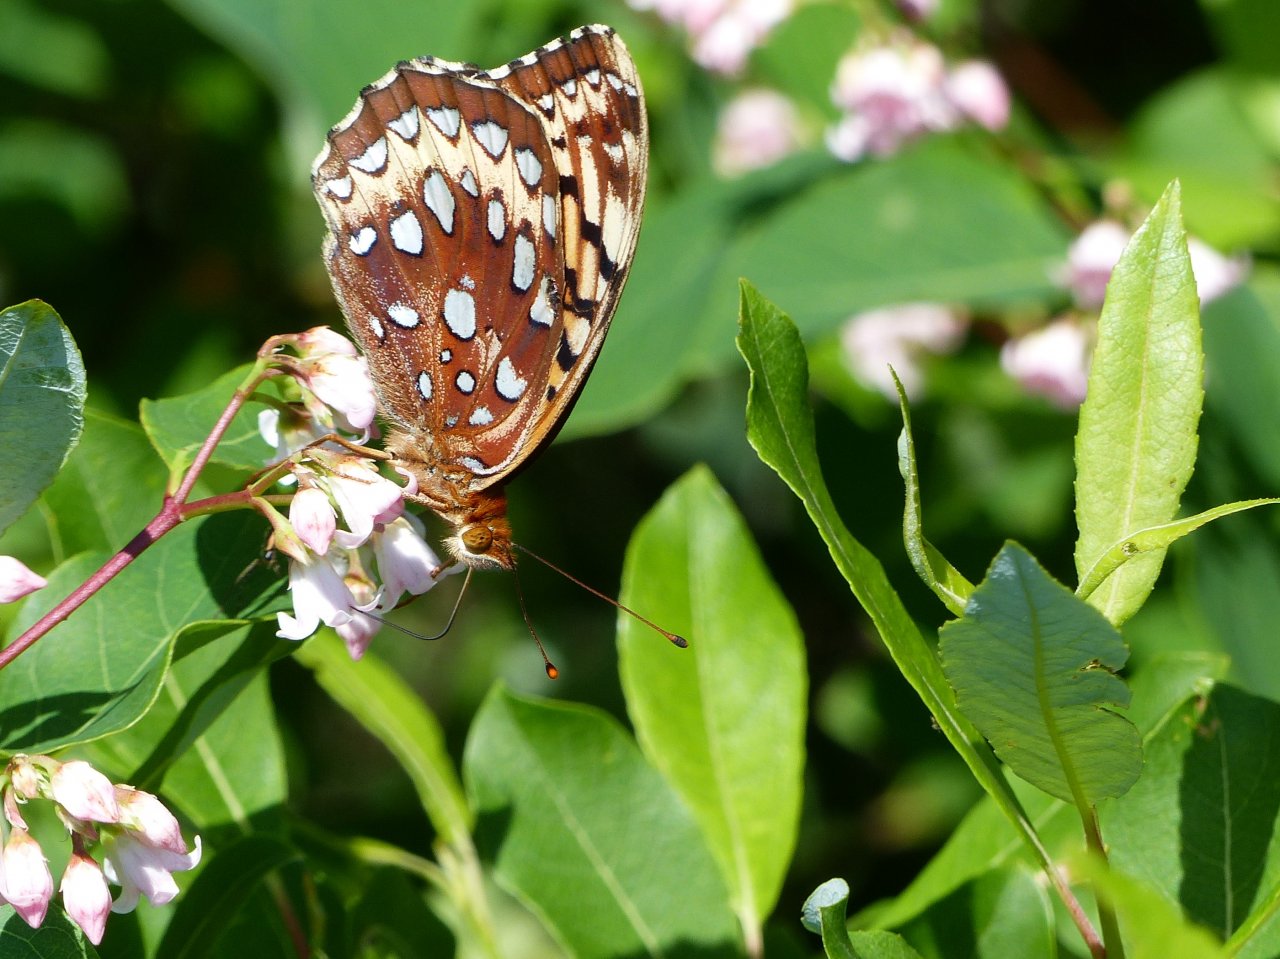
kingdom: Animalia
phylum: Arthropoda
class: Insecta
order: Lepidoptera
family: Nymphalidae
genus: Speyeria
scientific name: Speyeria
